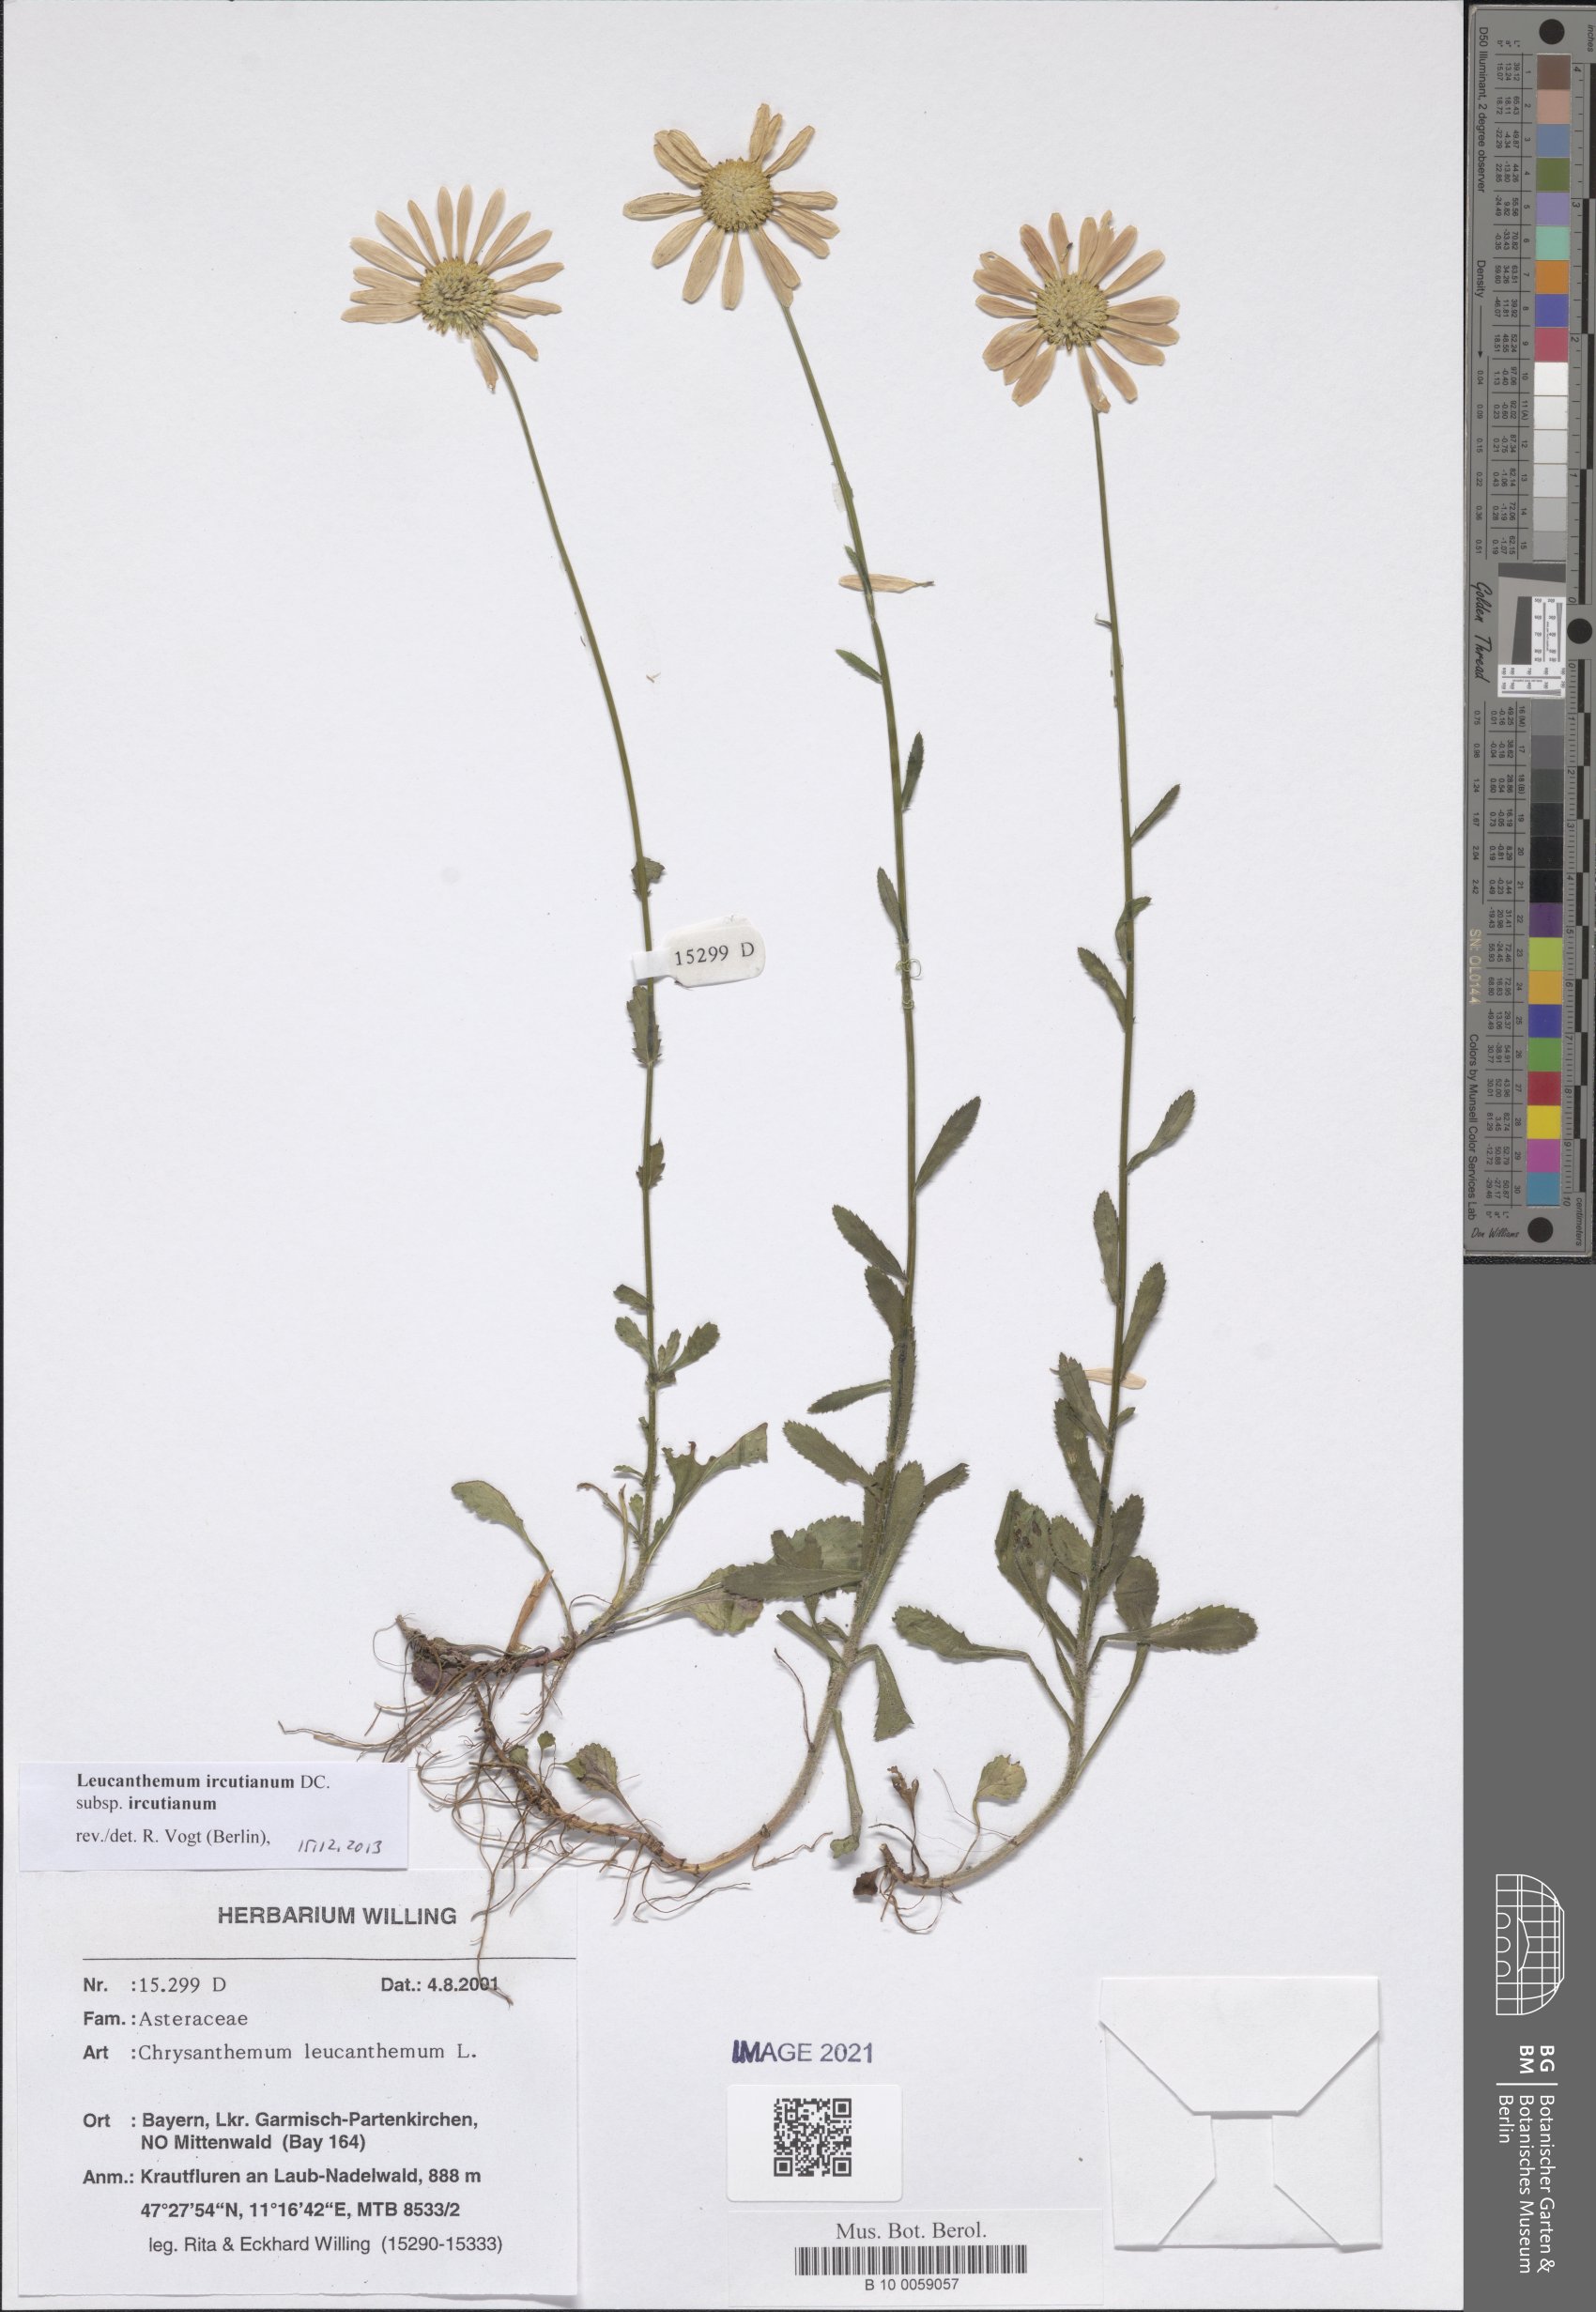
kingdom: Plantae
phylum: Tracheophyta
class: Magnoliopsida
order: Asterales
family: Asteraceae
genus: Leucanthemum
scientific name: Leucanthemum ircutianum
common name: Daisy
